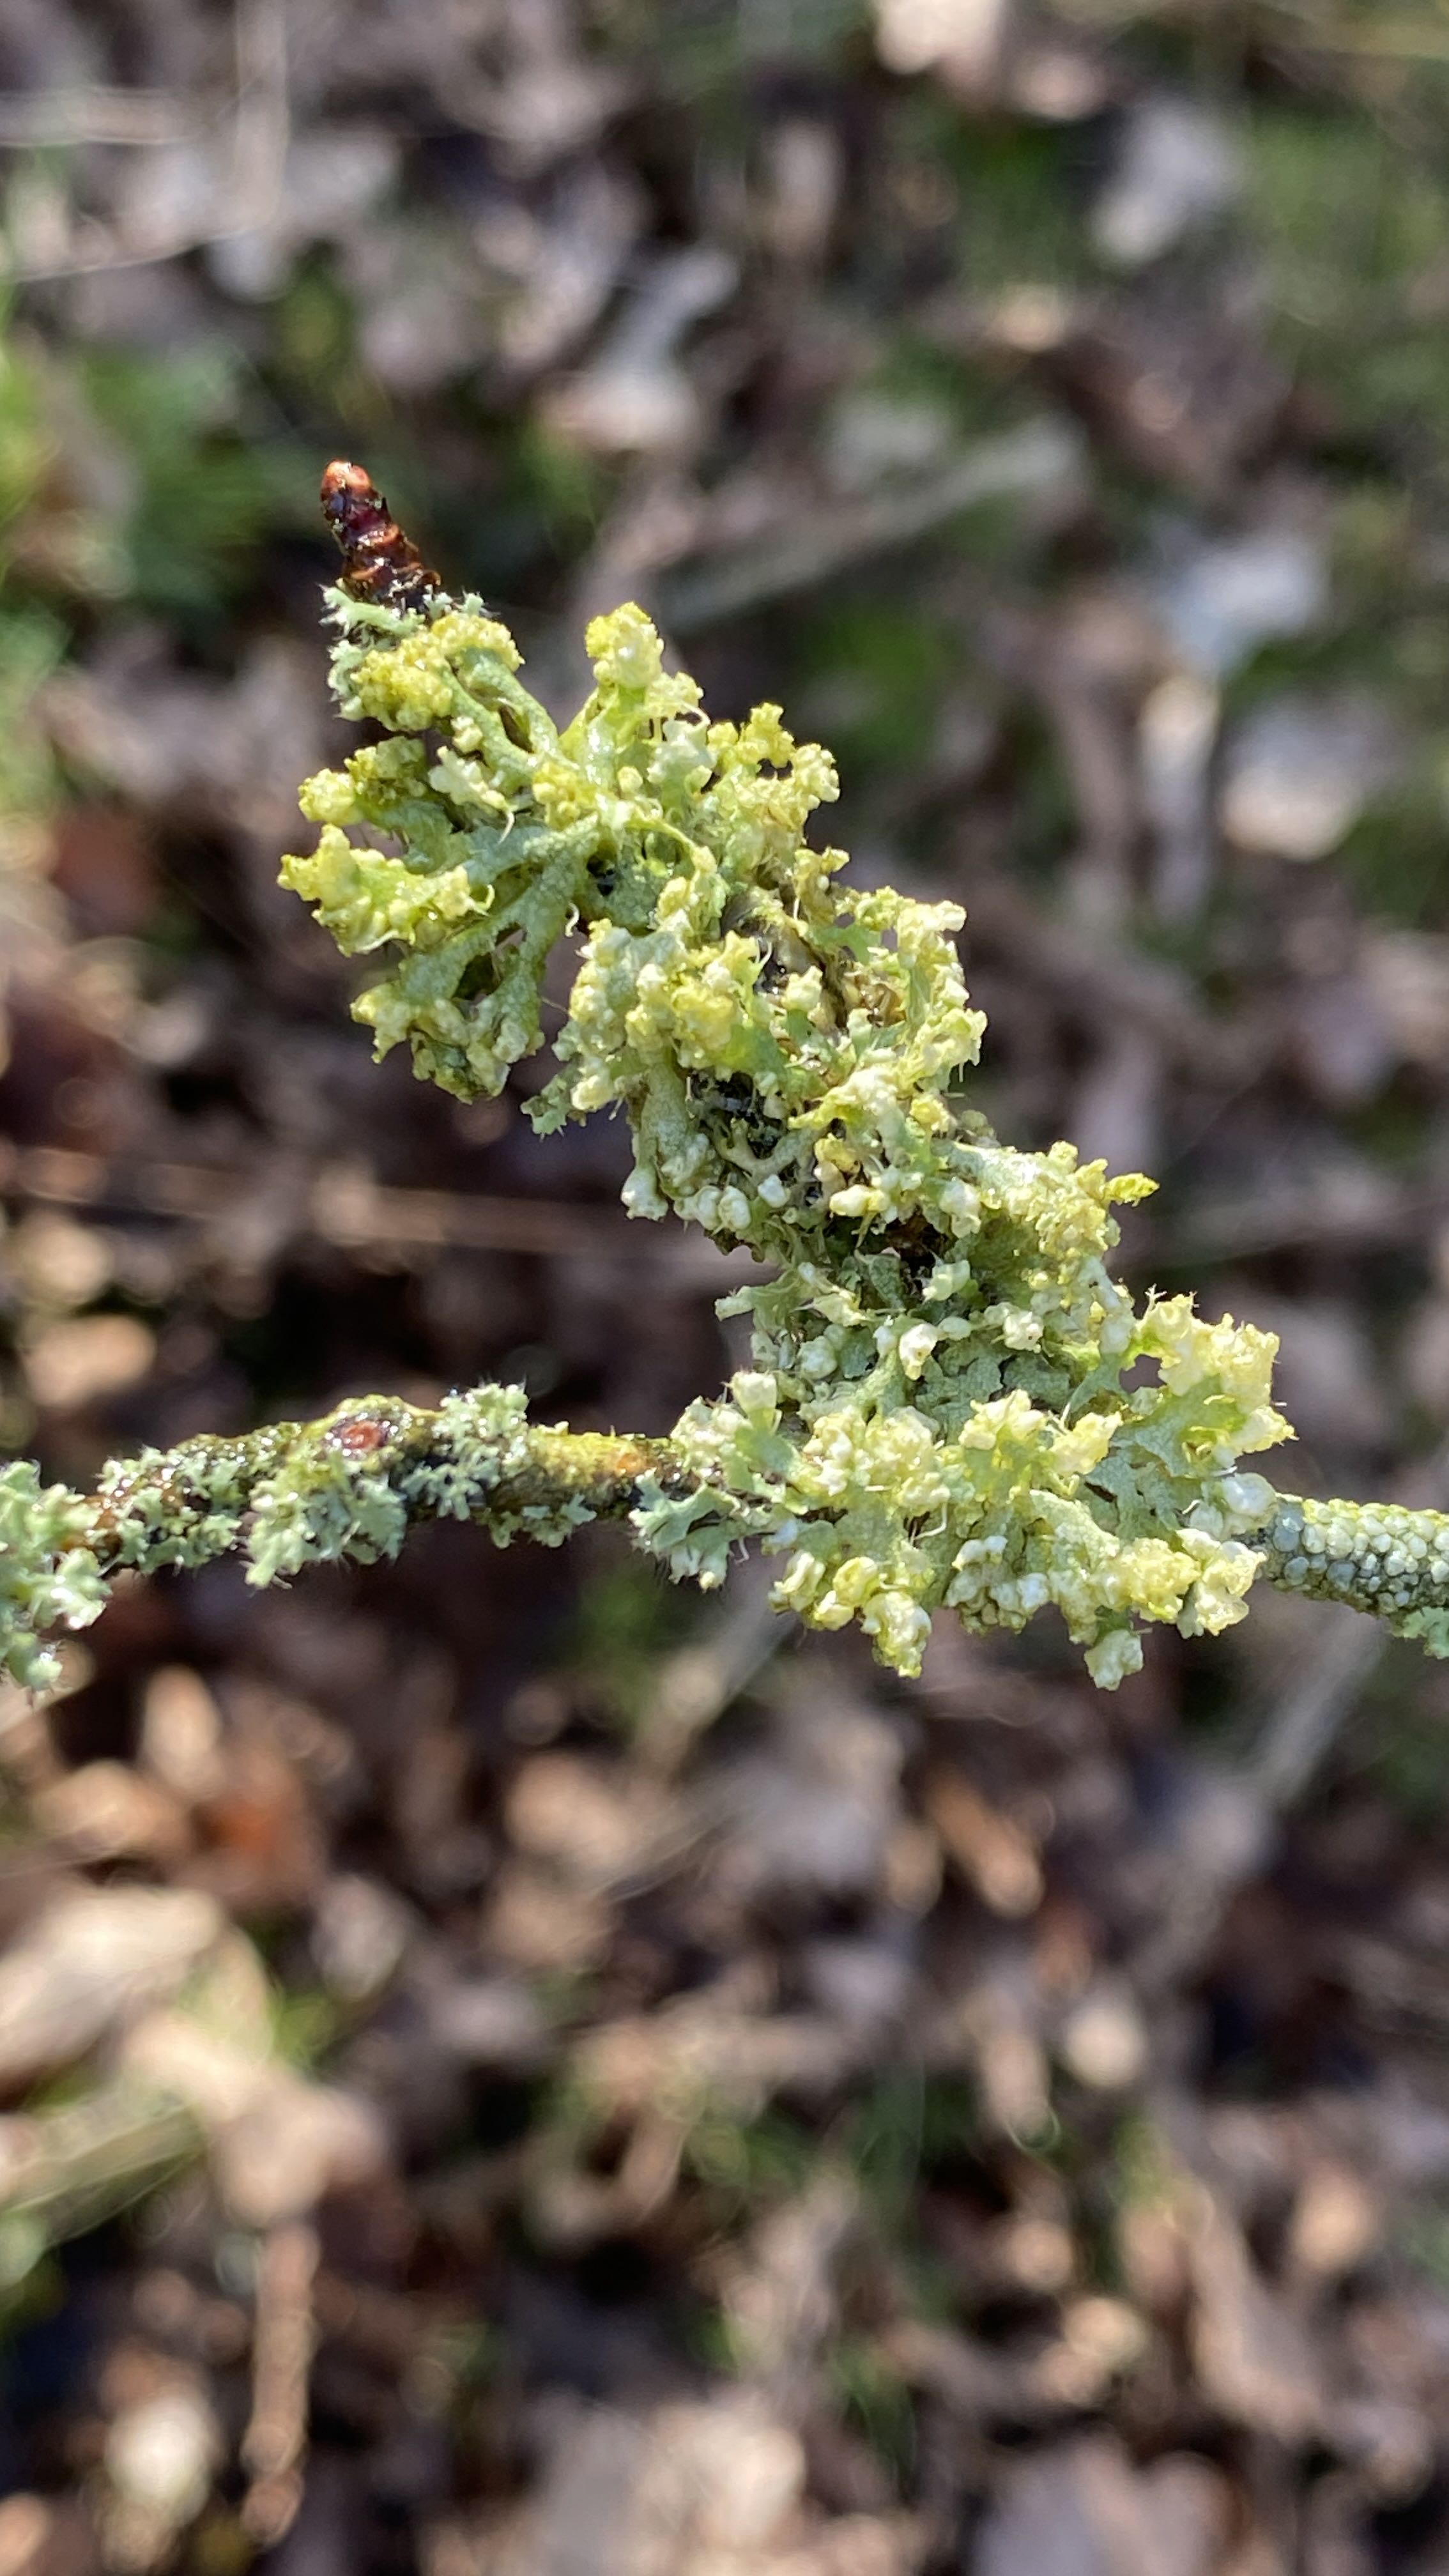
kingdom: Fungi
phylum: Ascomycota
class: Lecanoromycetes
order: Caliciales
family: Physciaceae
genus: Physcia
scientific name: Physcia adscendens
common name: hætte-rosetlav
